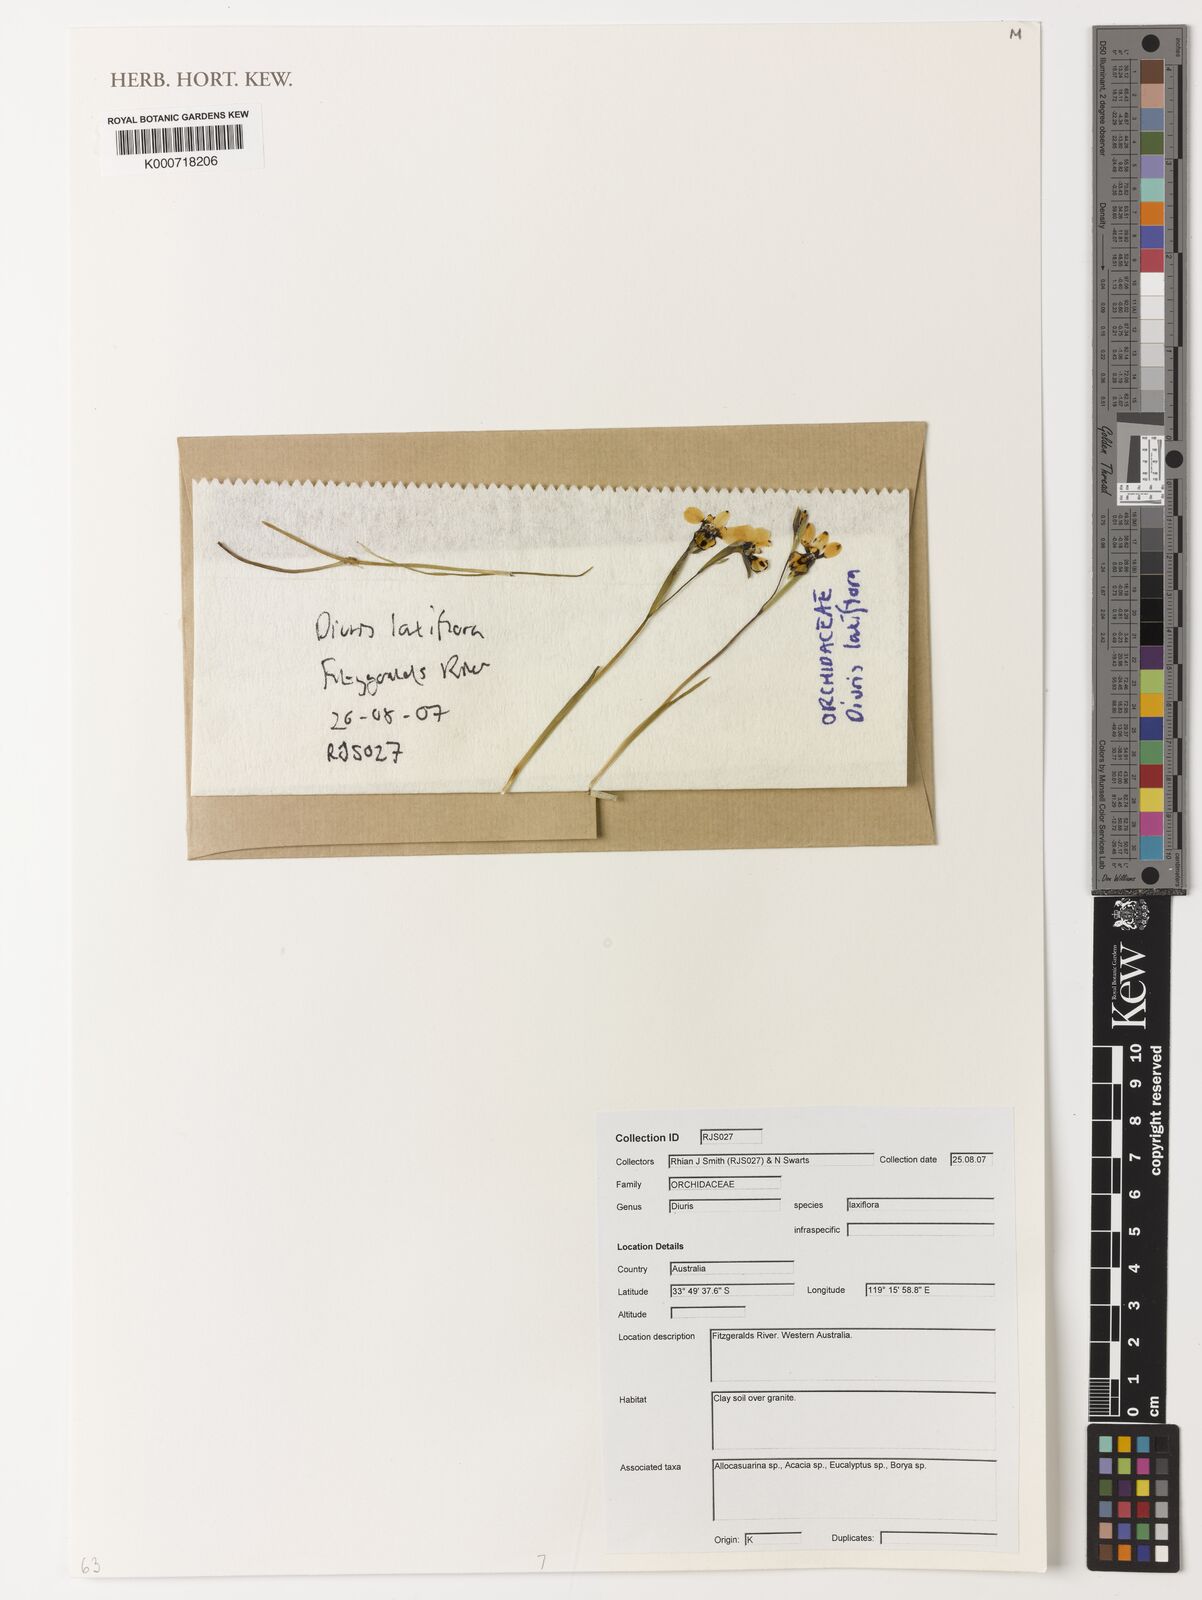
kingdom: Plantae
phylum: Tracheophyta
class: Liliopsida
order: Asparagales
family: Orchidaceae
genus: Diuris
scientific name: Diuris laxiflora
